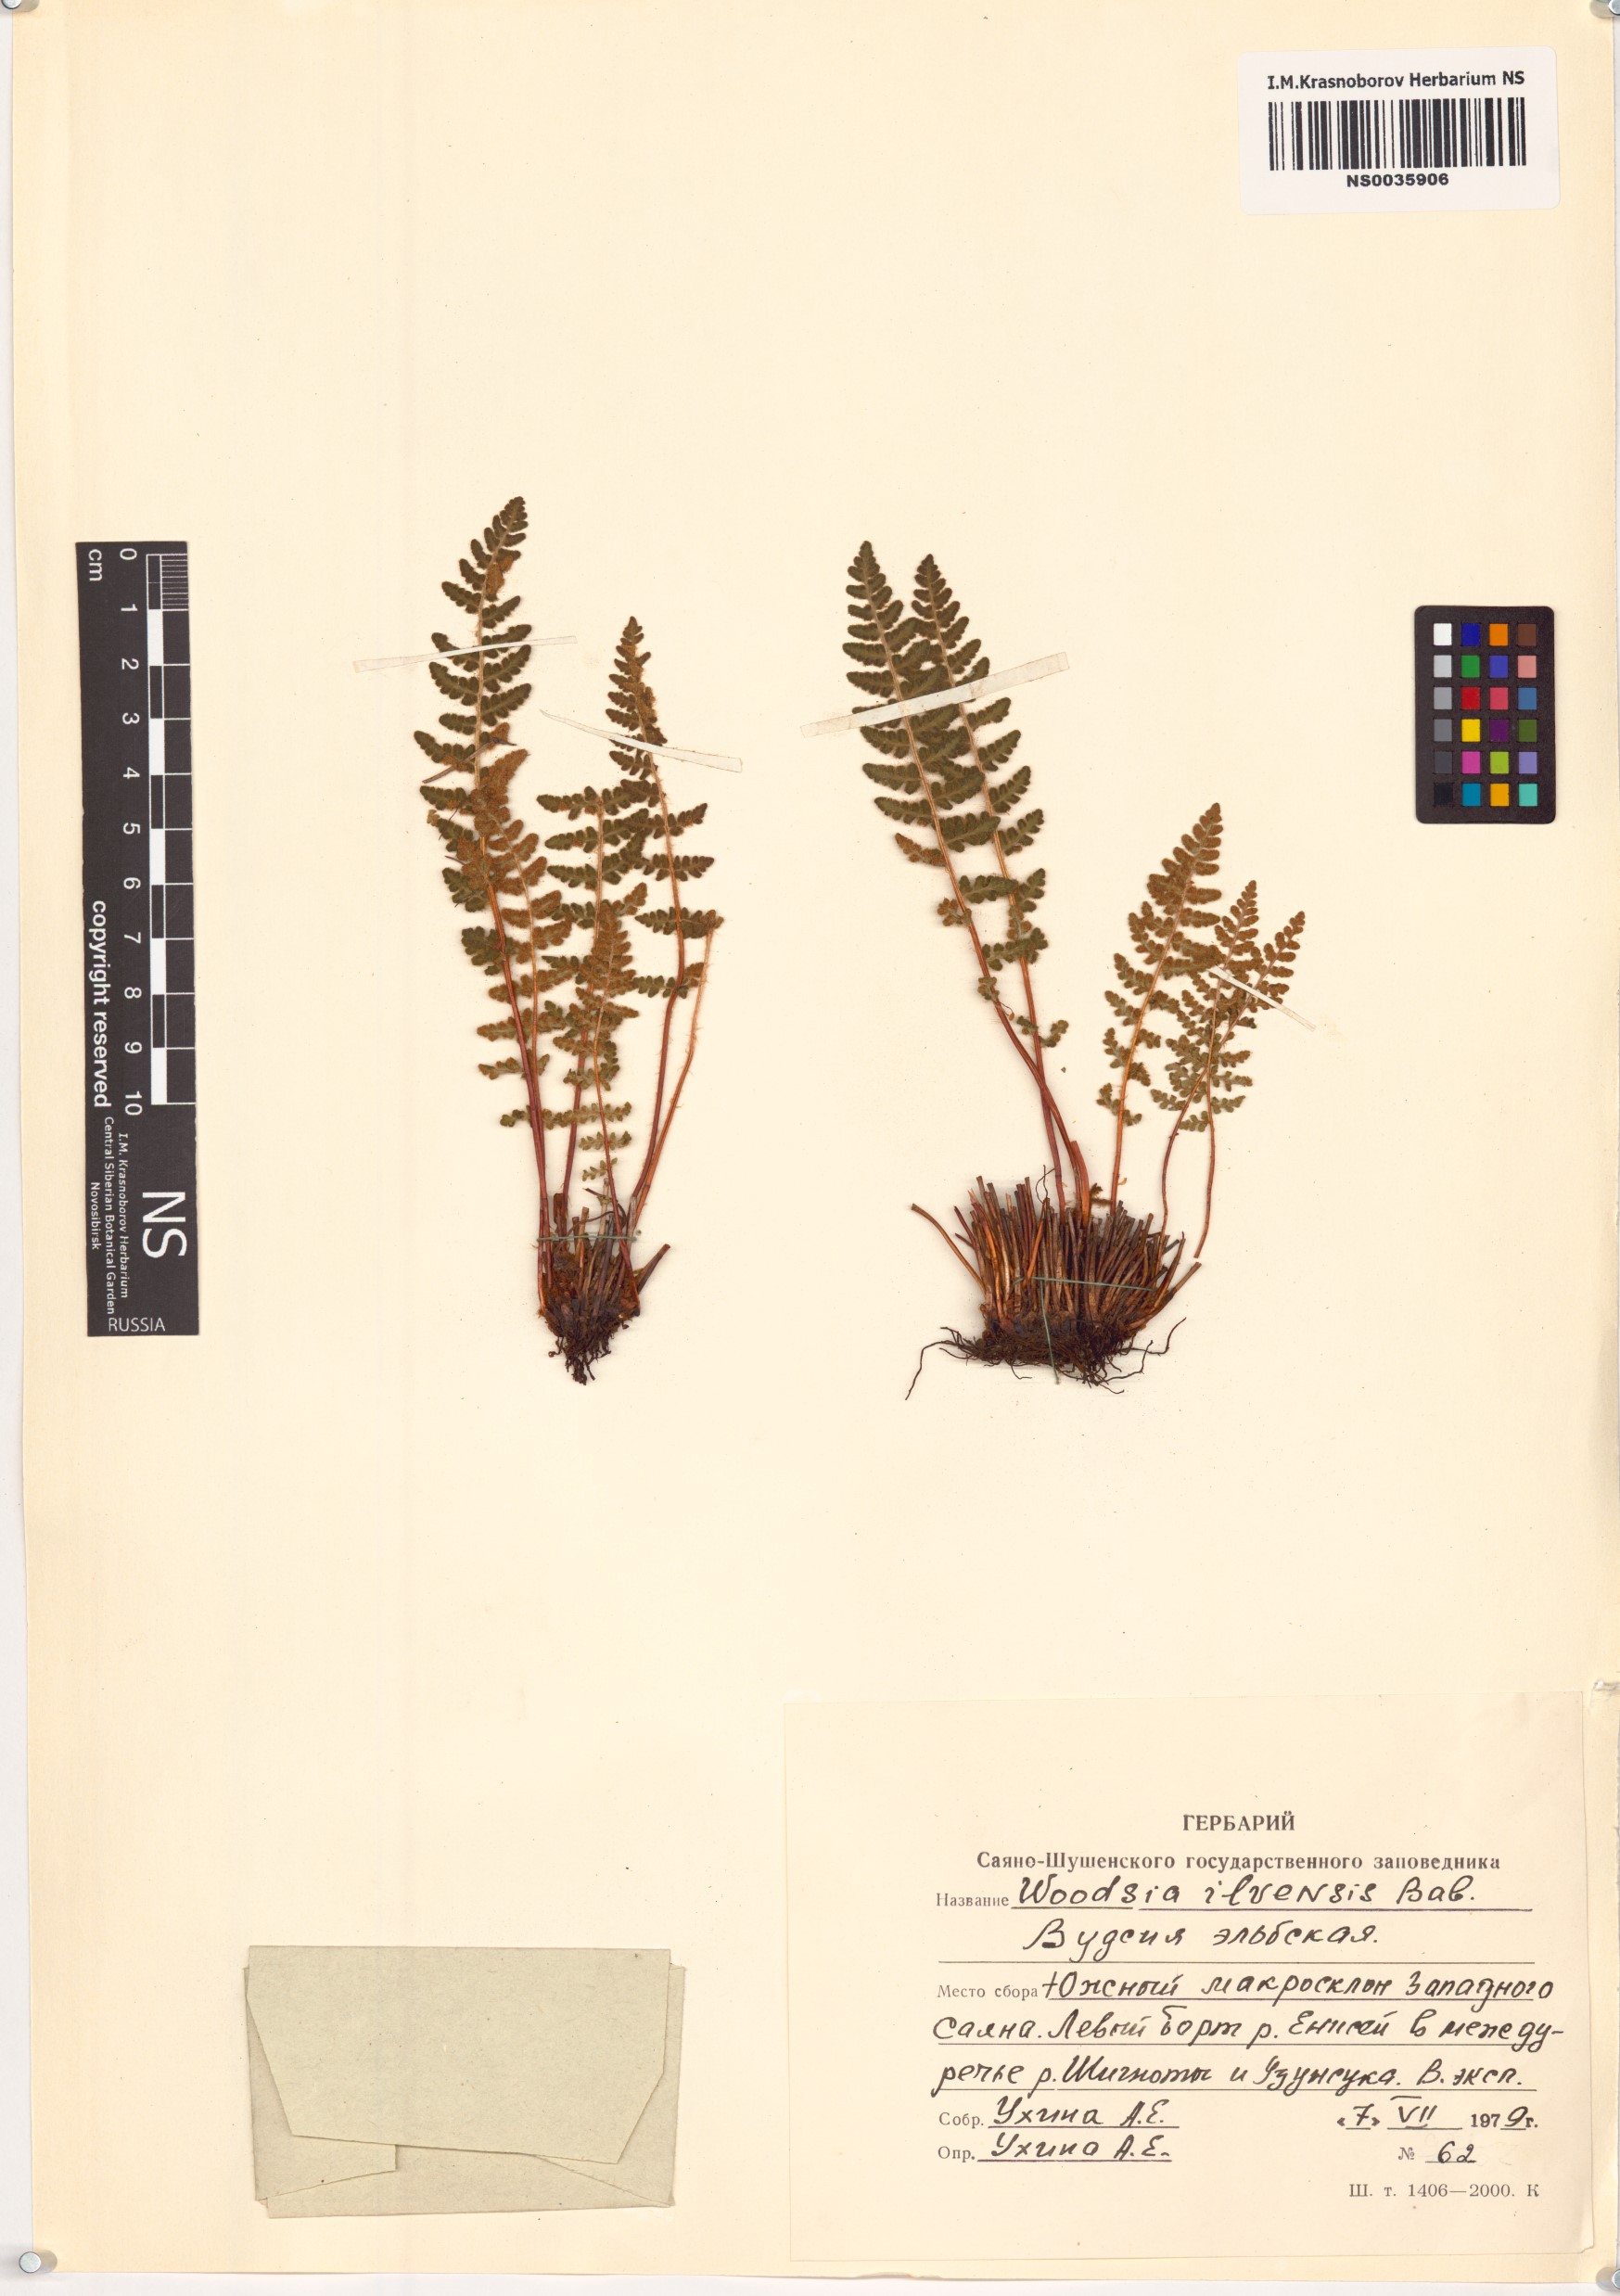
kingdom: Plantae
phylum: Tracheophyta
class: Polypodiopsida
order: Polypodiales
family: Woodsiaceae
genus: Woodsia
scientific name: Woodsia ilvensis
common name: Fragrant woodsia
